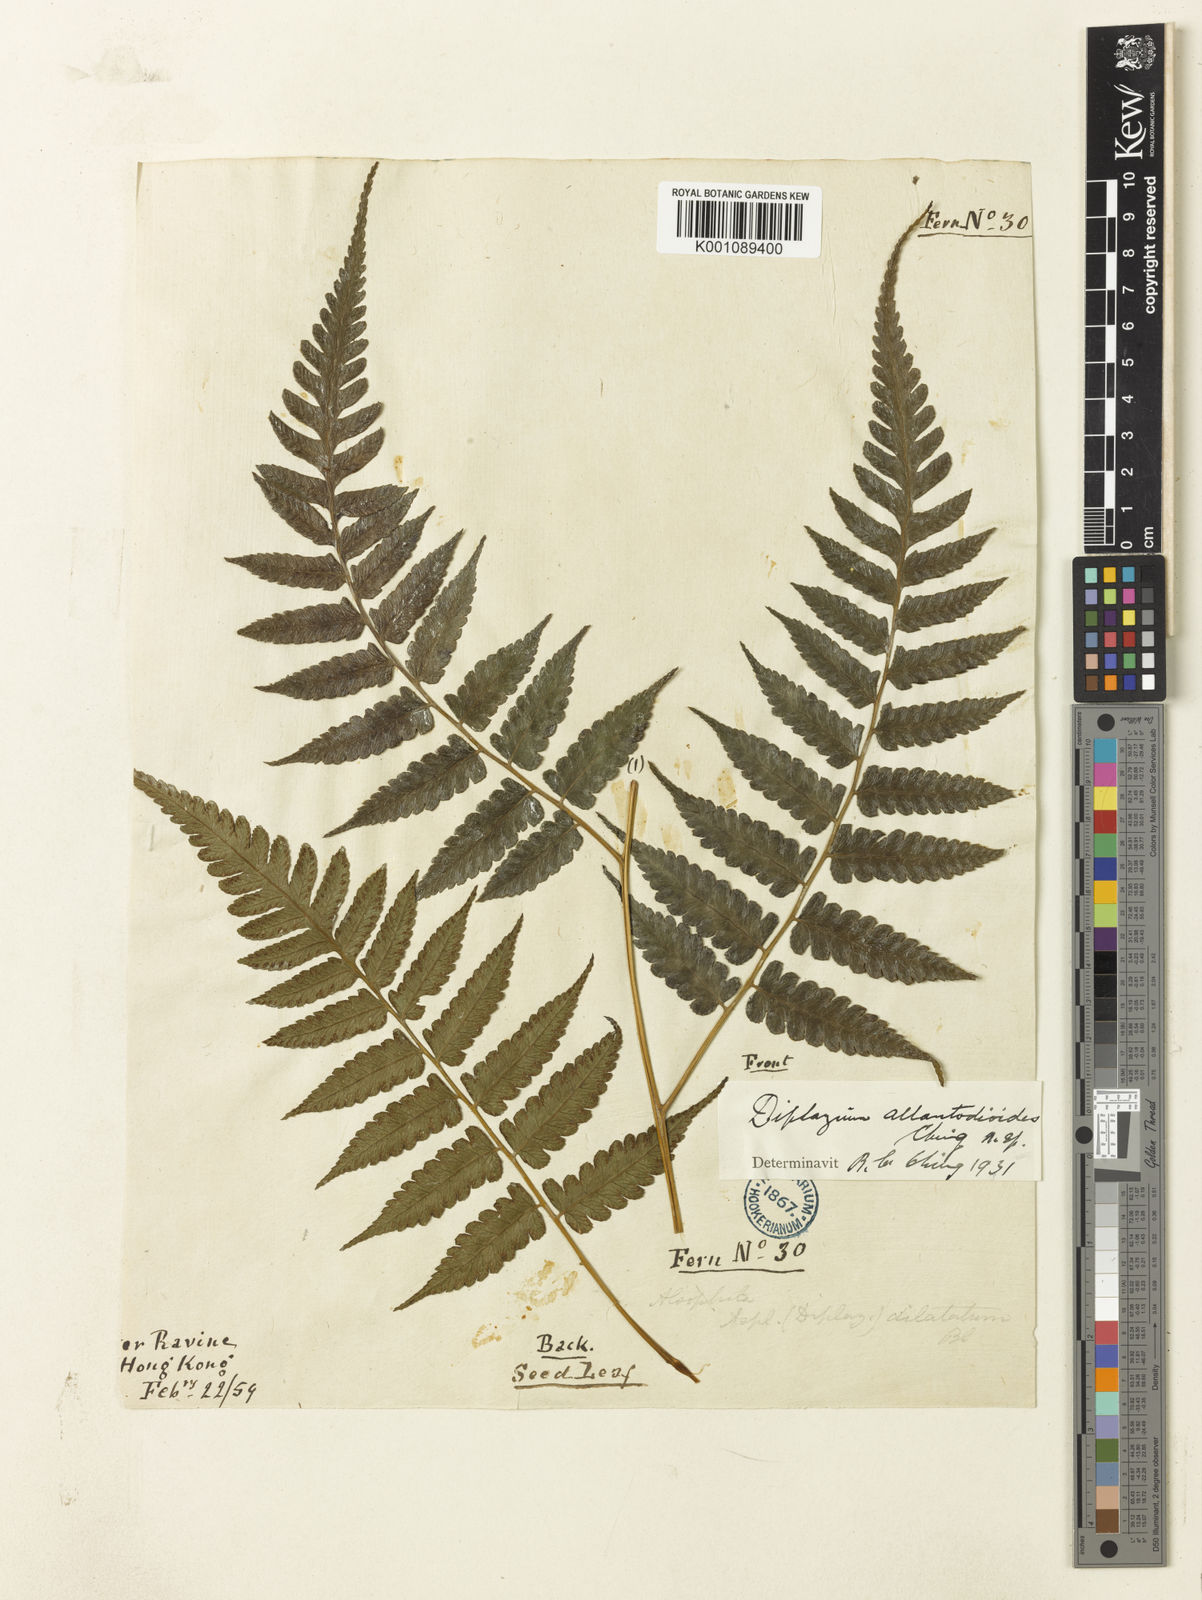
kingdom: Plantae
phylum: Tracheophyta
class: Polypodiopsida
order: Polypodiales
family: Athyriaceae
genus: Diplazium
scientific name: Diplazium virescens
